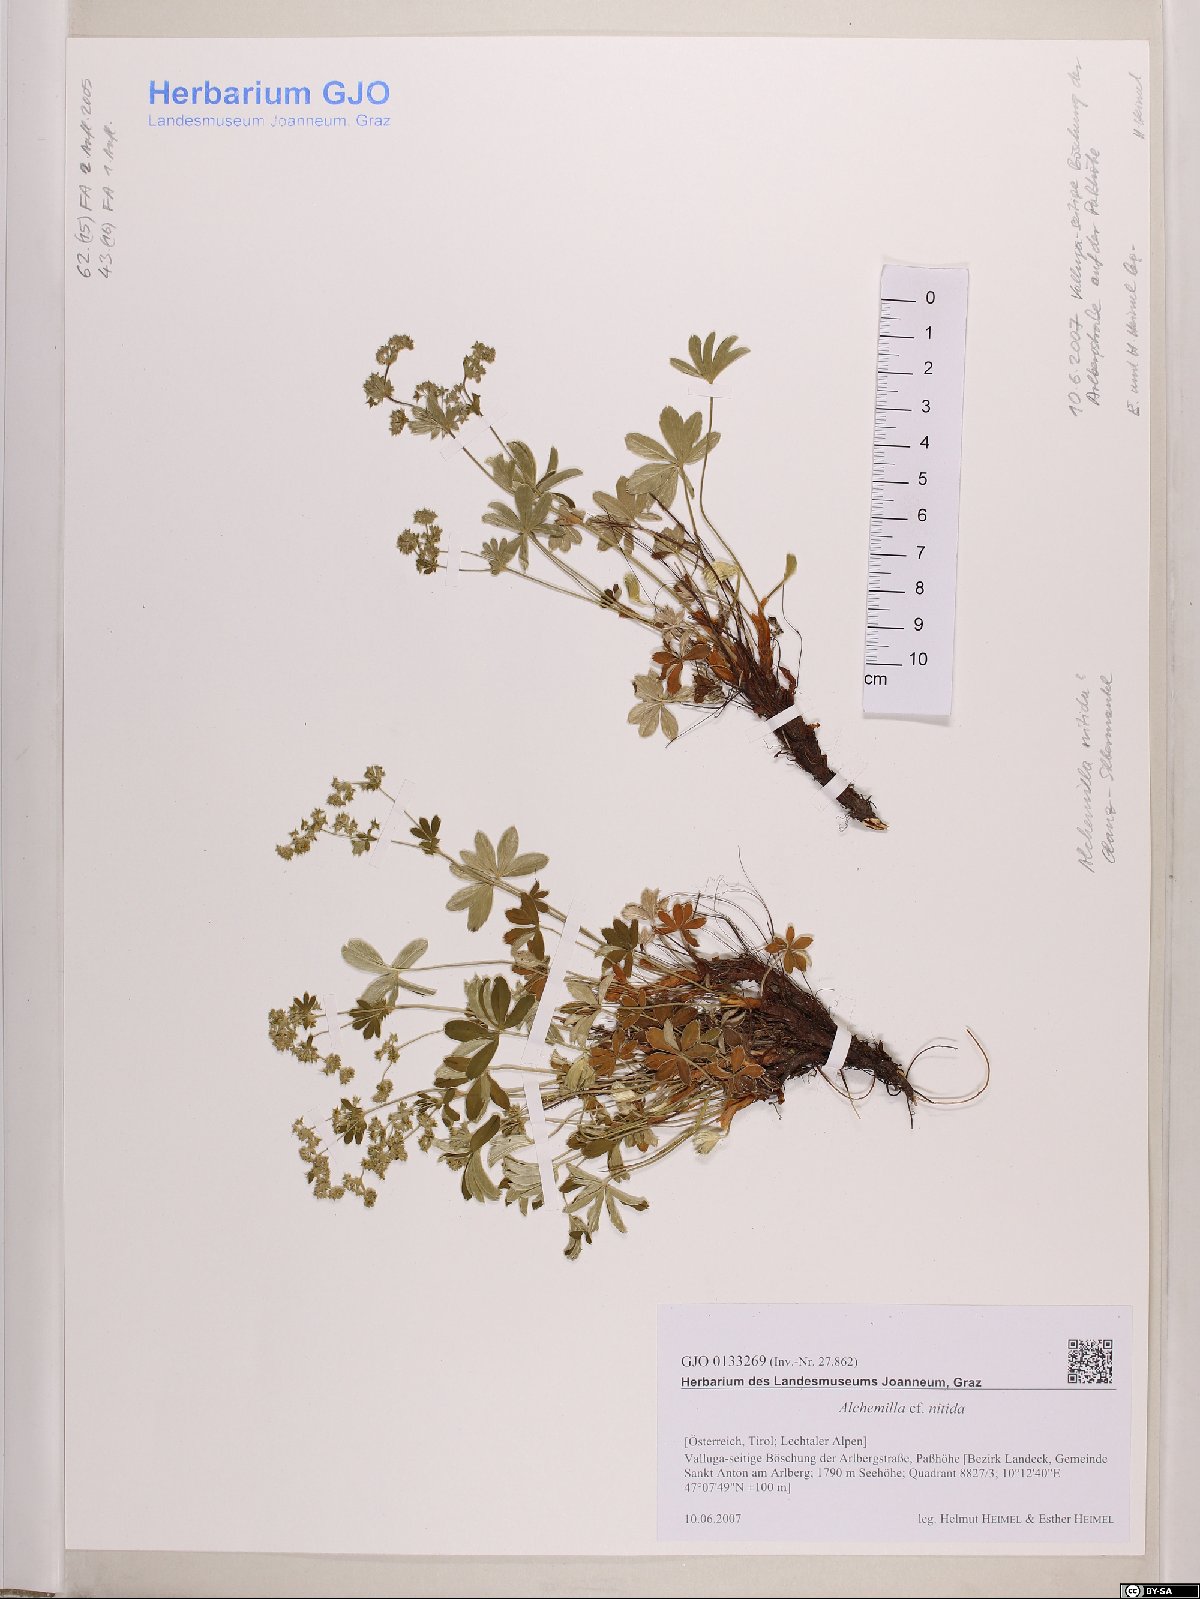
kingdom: Plantae
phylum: Tracheophyta
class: Magnoliopsida
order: Rosales
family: Rosaceae
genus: Alchemilla
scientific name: Alchemilla nitida
